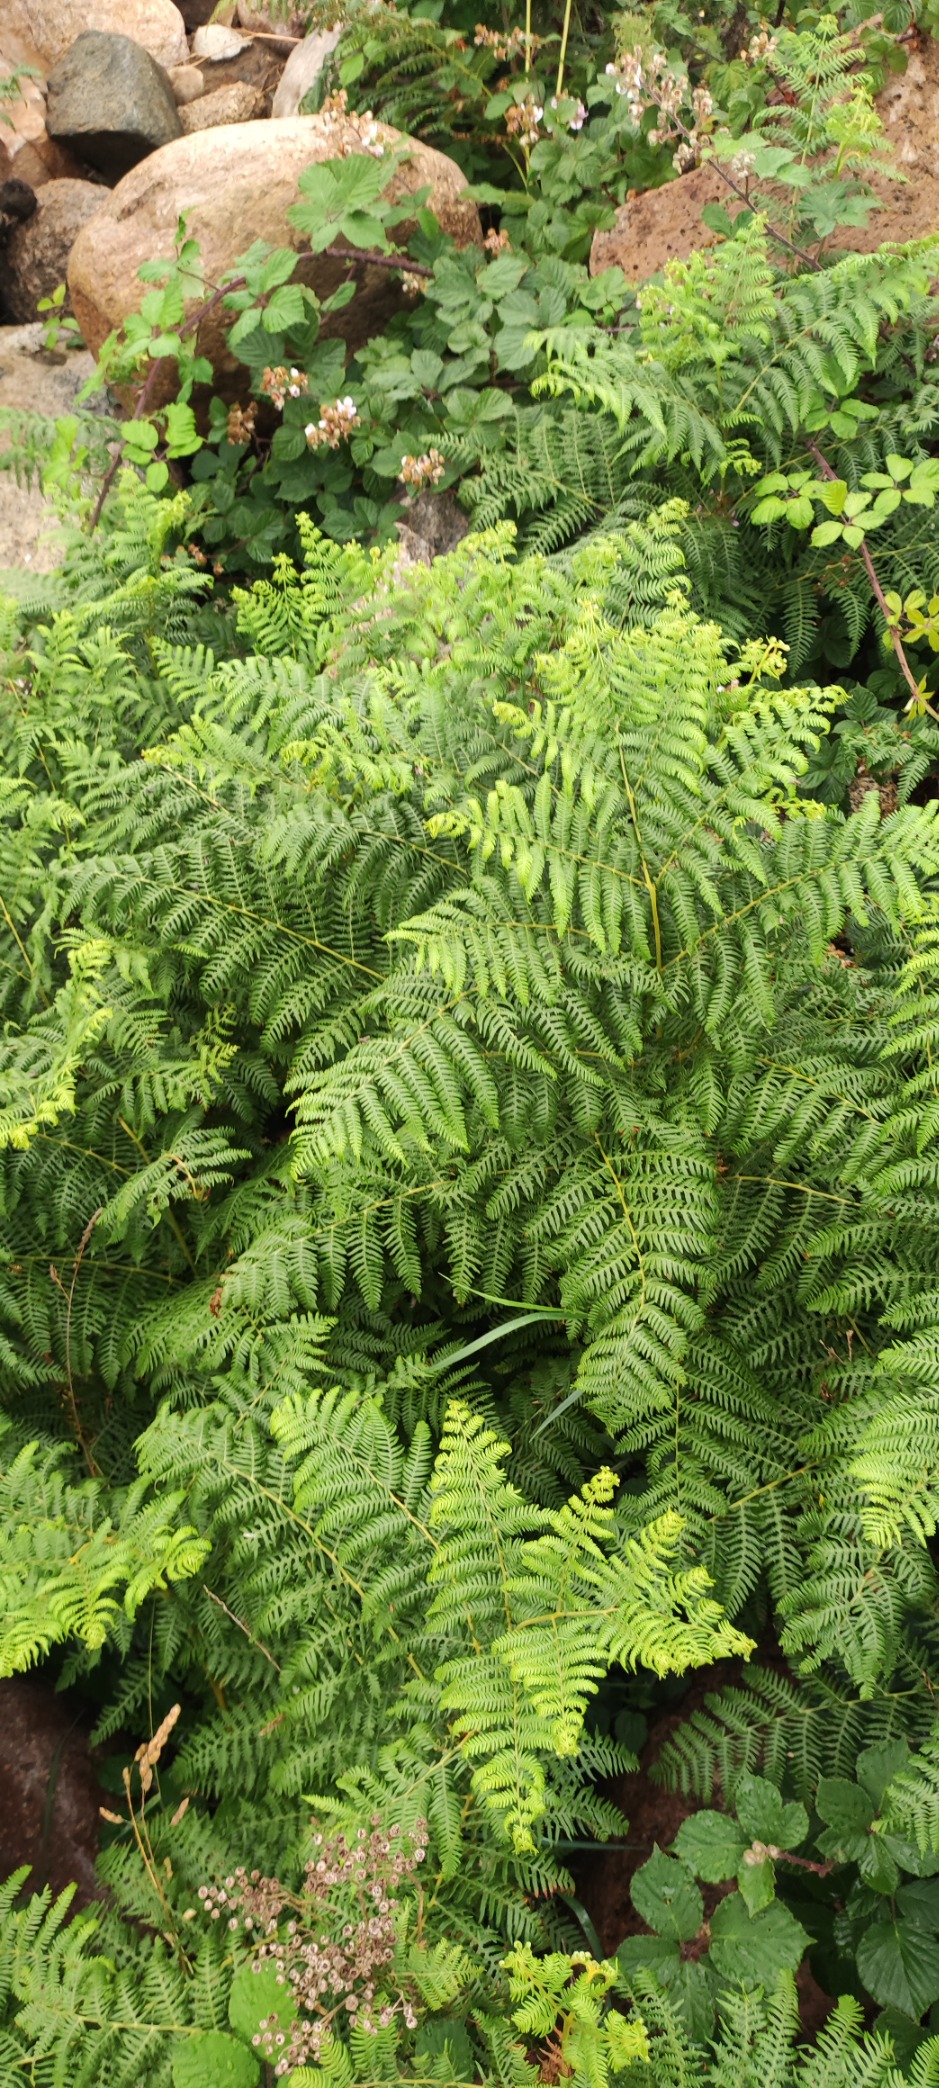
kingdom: Plantae
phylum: Tracheophyta
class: Polypodiopsida
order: Polypodiales
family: Dennstaedtiaceae
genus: Pteridium
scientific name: Pteridium aquilinum
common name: Ørnebregne
